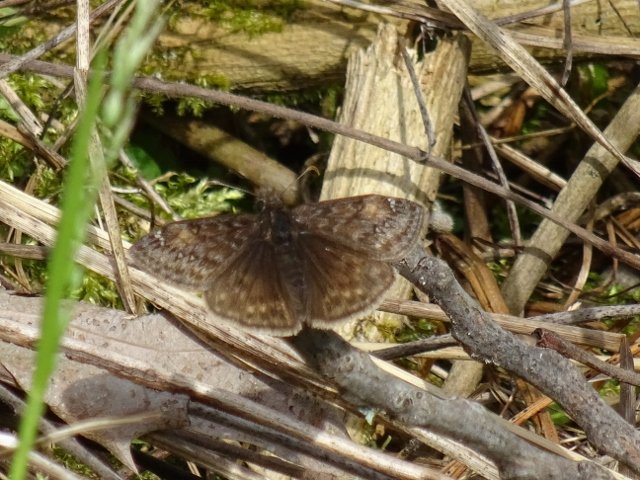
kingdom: Animalia
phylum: Arthropoda
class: Insecta
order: Lepidoptera
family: Hesperiidae
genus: Gesta
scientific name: Gesta
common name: Juvenal's Duskywing
